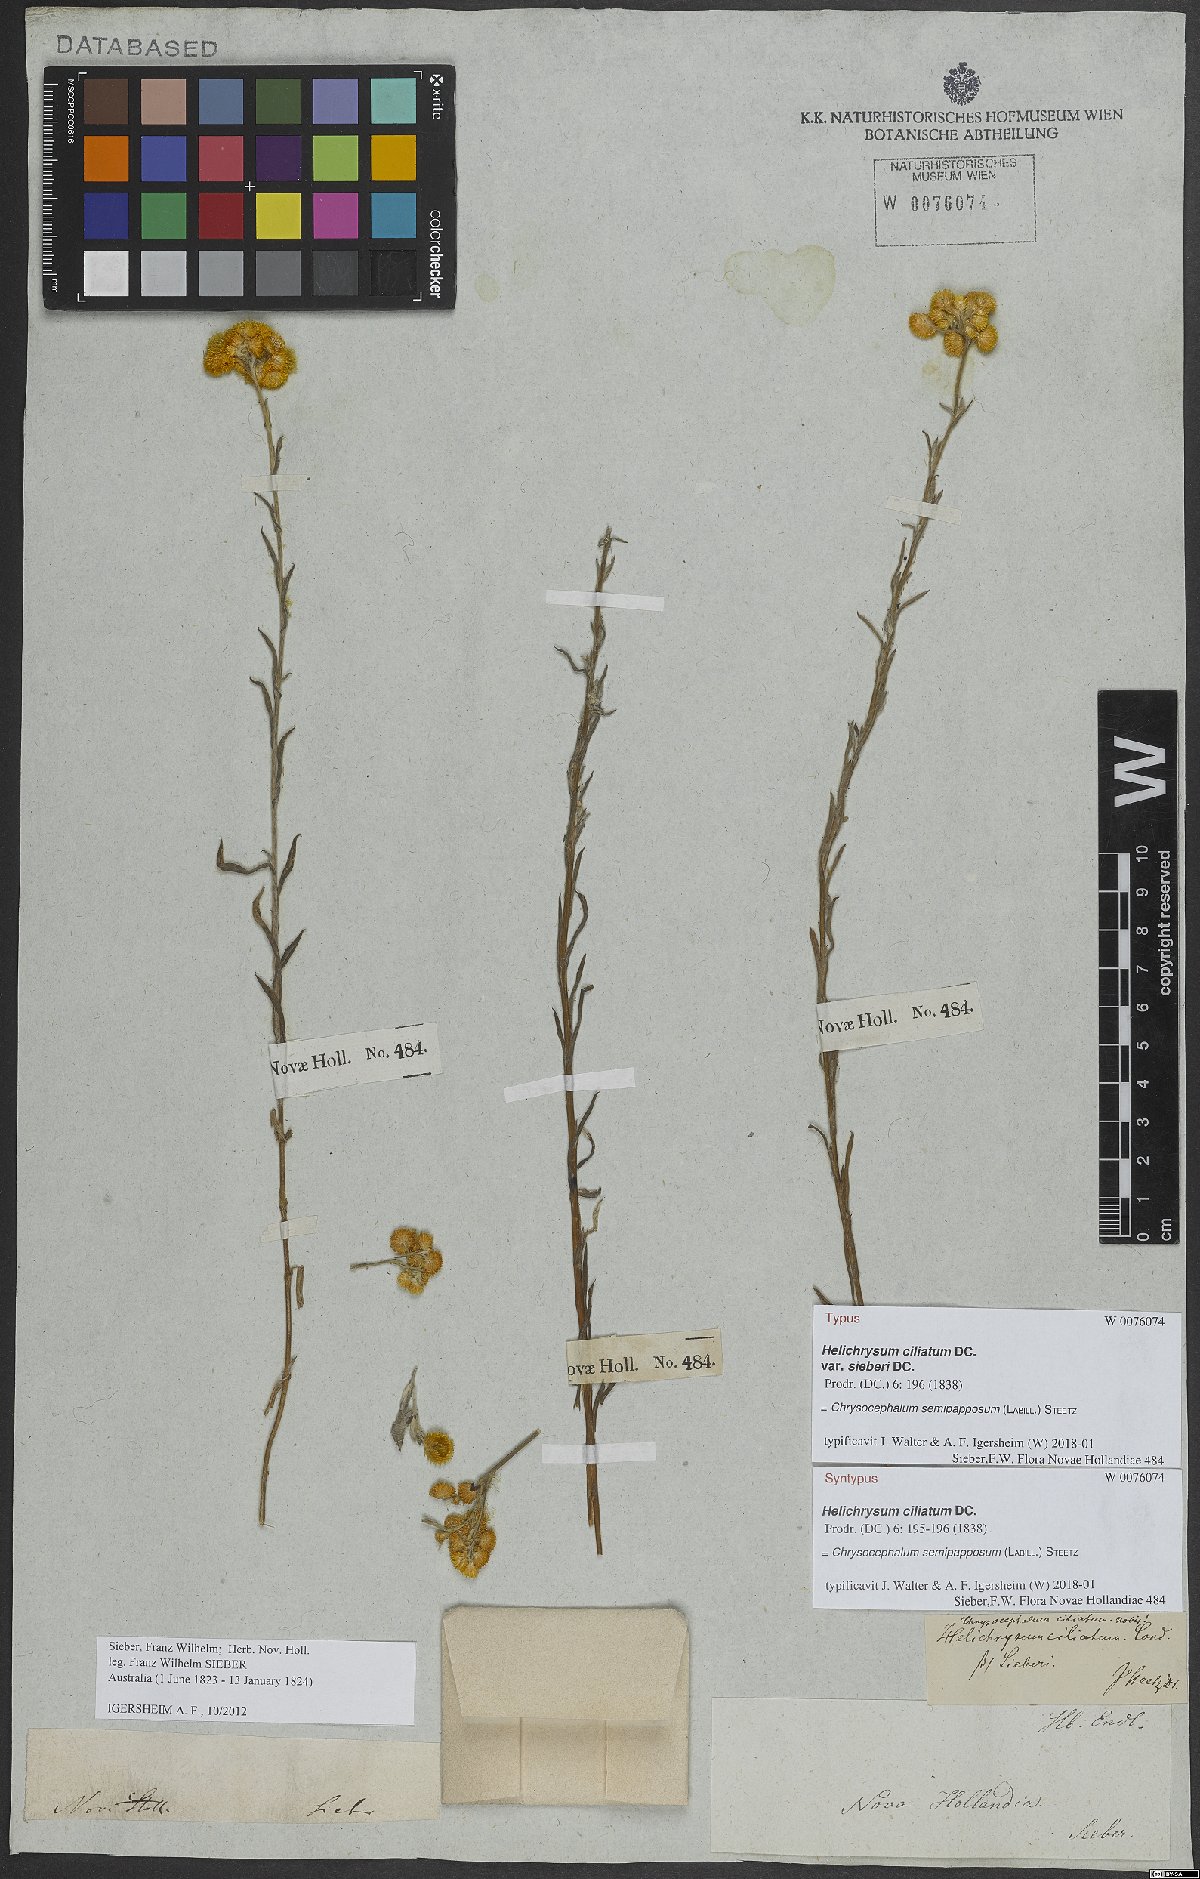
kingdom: Plantae
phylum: Tracheophyta
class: Magnoliopsida
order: Asterales
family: Asteraceae
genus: Chrysocephalum
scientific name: Chrysocephalum semipapposum
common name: Clustered everlasting
